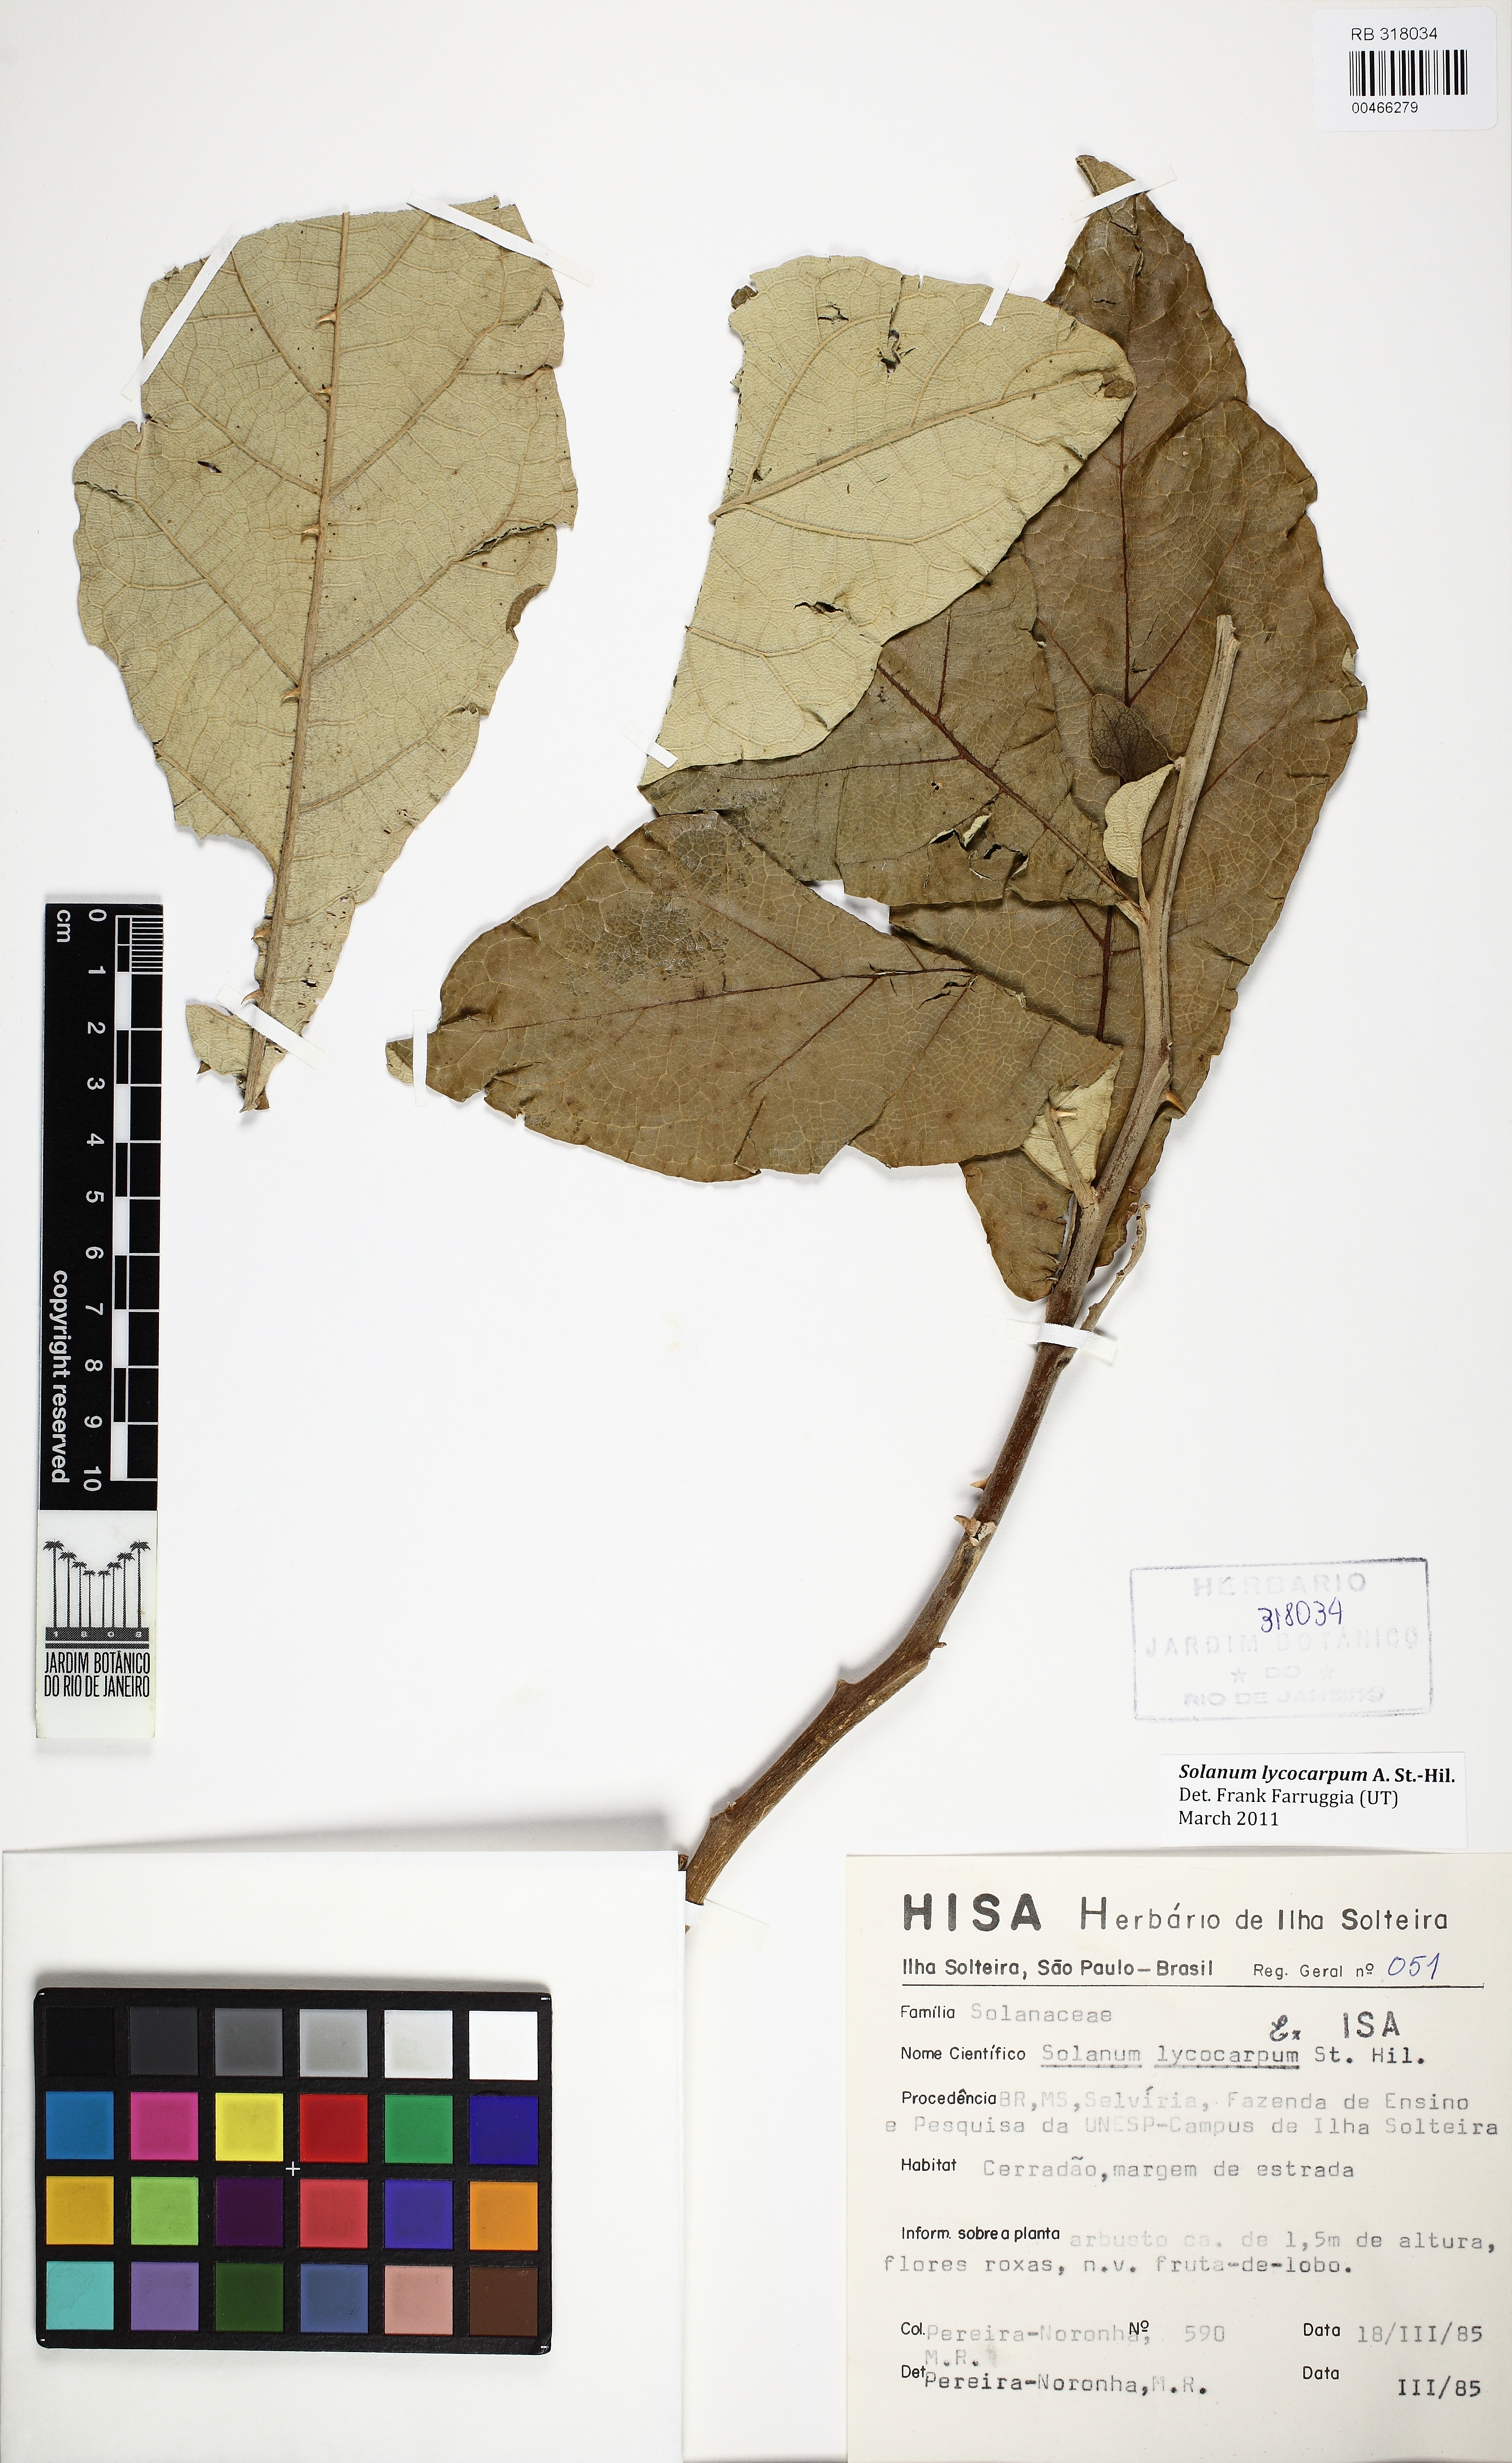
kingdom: Plantae
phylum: Tracheophyta
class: Magnoliopsida
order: Solanales
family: Solanaceae
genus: Solanum
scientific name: Solanum lycocarpum
